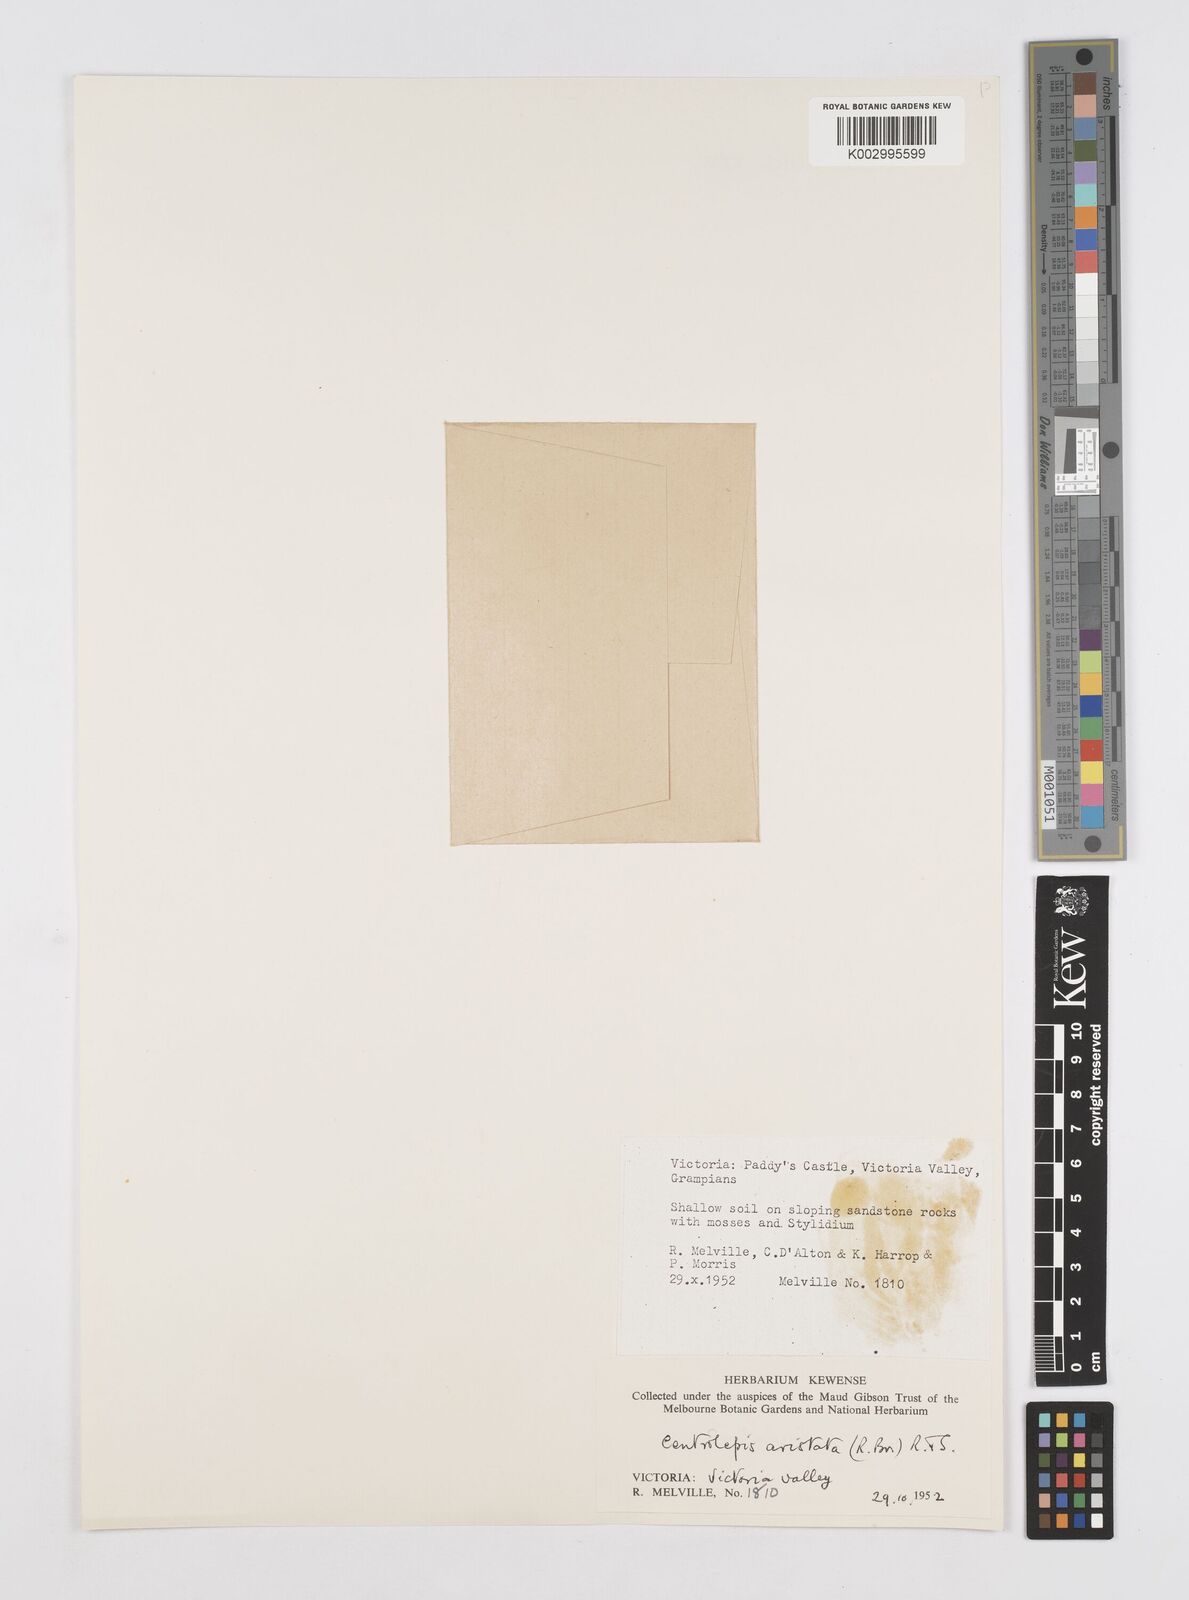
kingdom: Plantae
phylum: Tracheophyta
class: Liliopsida
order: Poales
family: Restionaceae
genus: Centrolepis
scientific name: Centrolepis aristata
